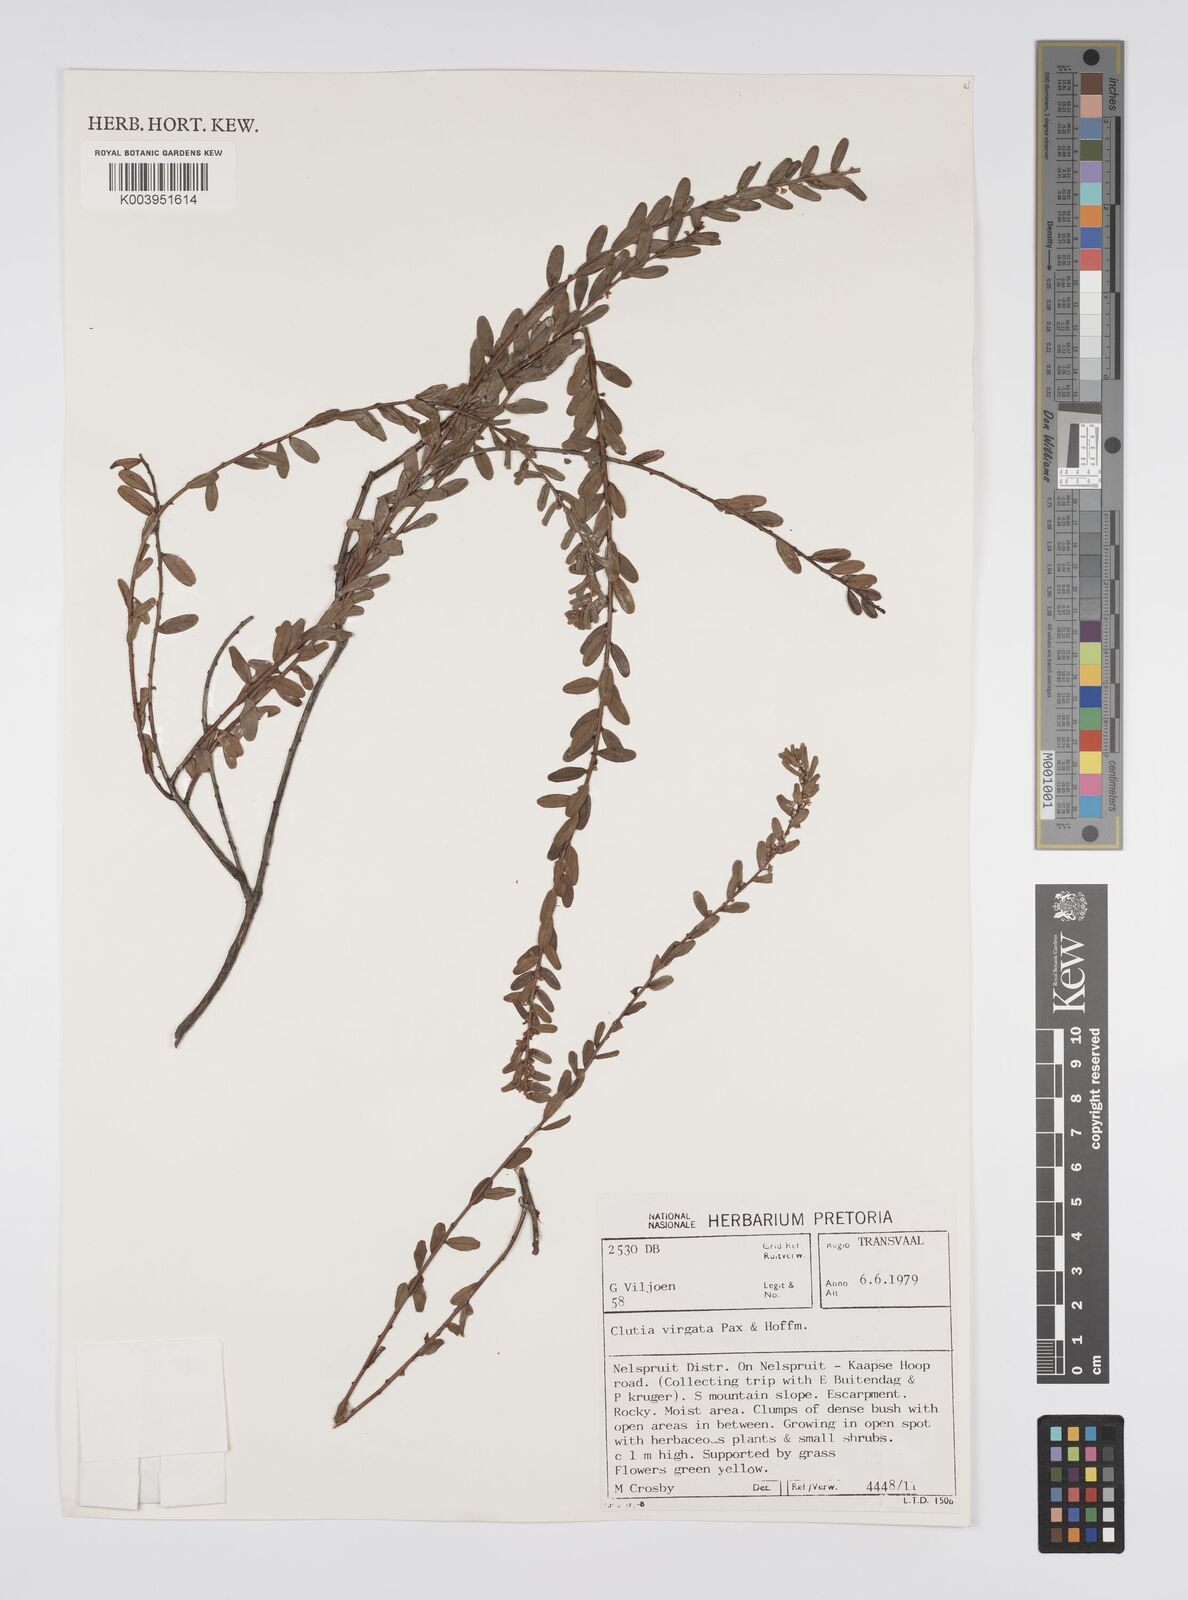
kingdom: Plantae
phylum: Tracheophyta
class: Magnoliopsida
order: Malpighiales
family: Peraceae
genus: Clutia
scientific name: Clutia virgata
